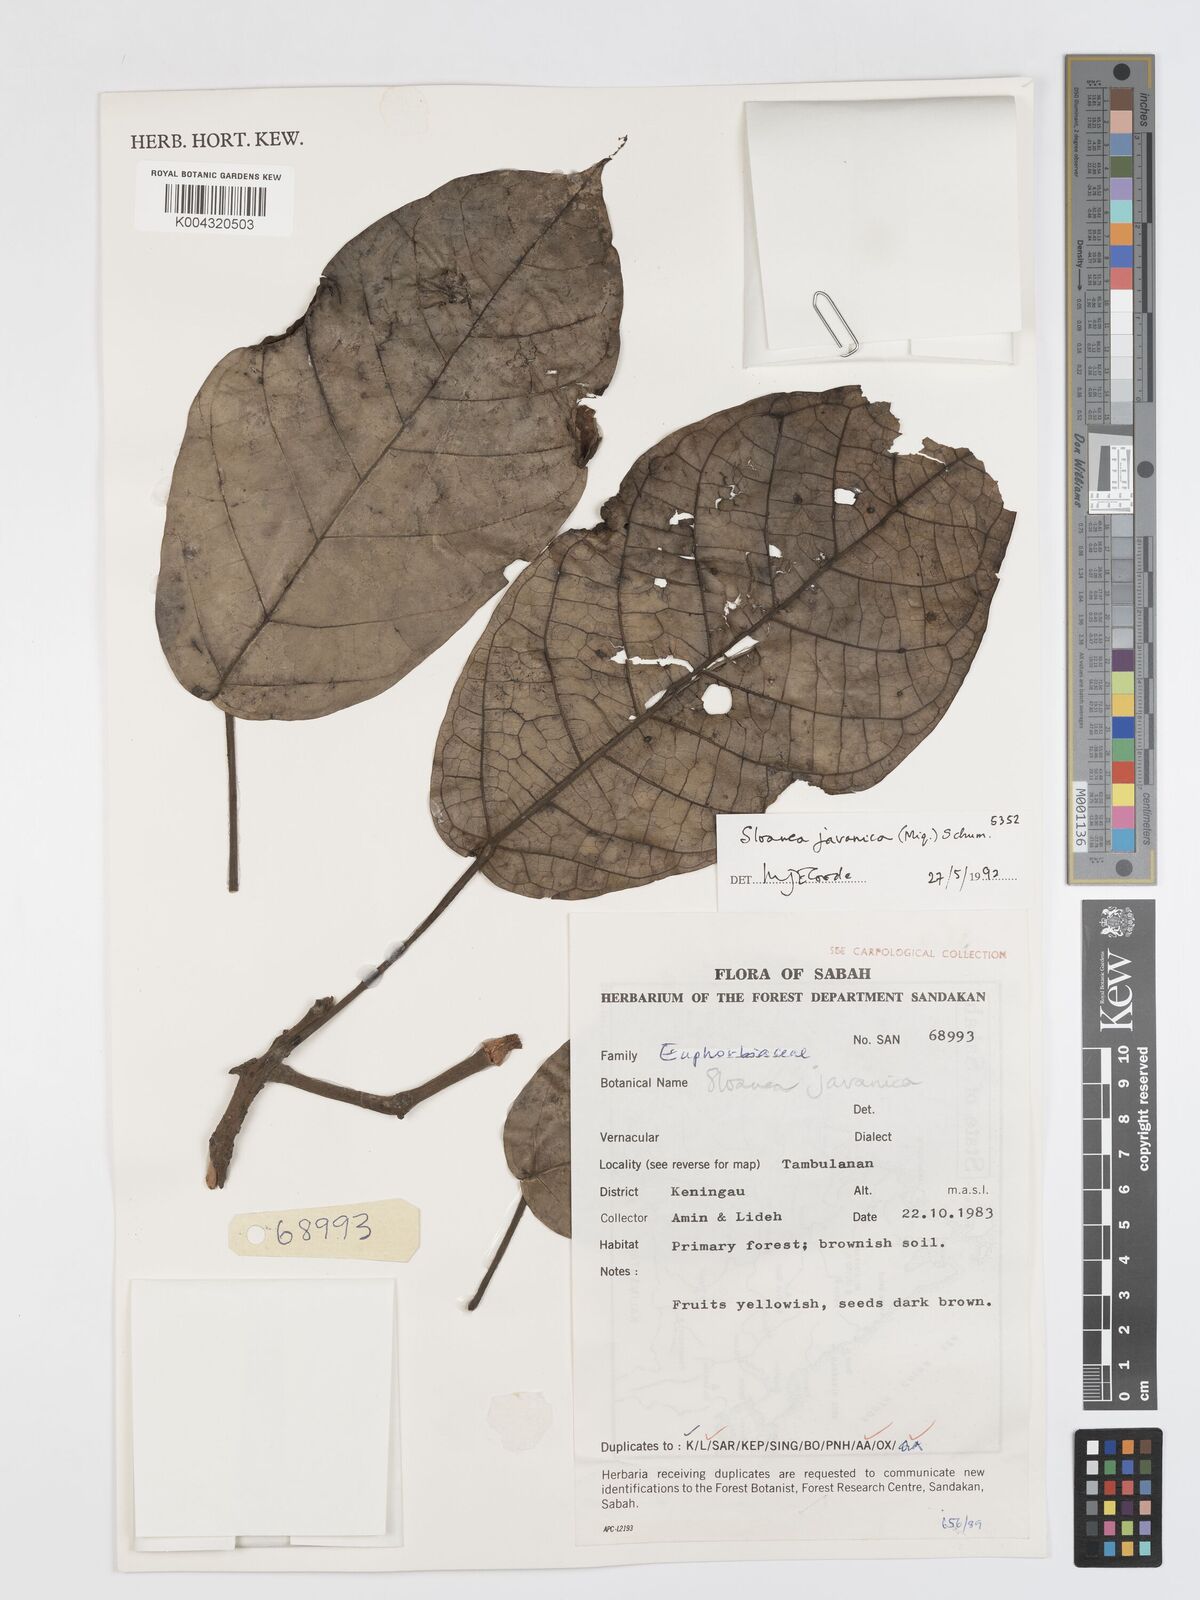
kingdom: Plantae
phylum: Tracheophyta
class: Magnoliopsida
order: Oxalidales
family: Elaeocarpaceae
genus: Sloanea
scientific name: Sloanea javanica
